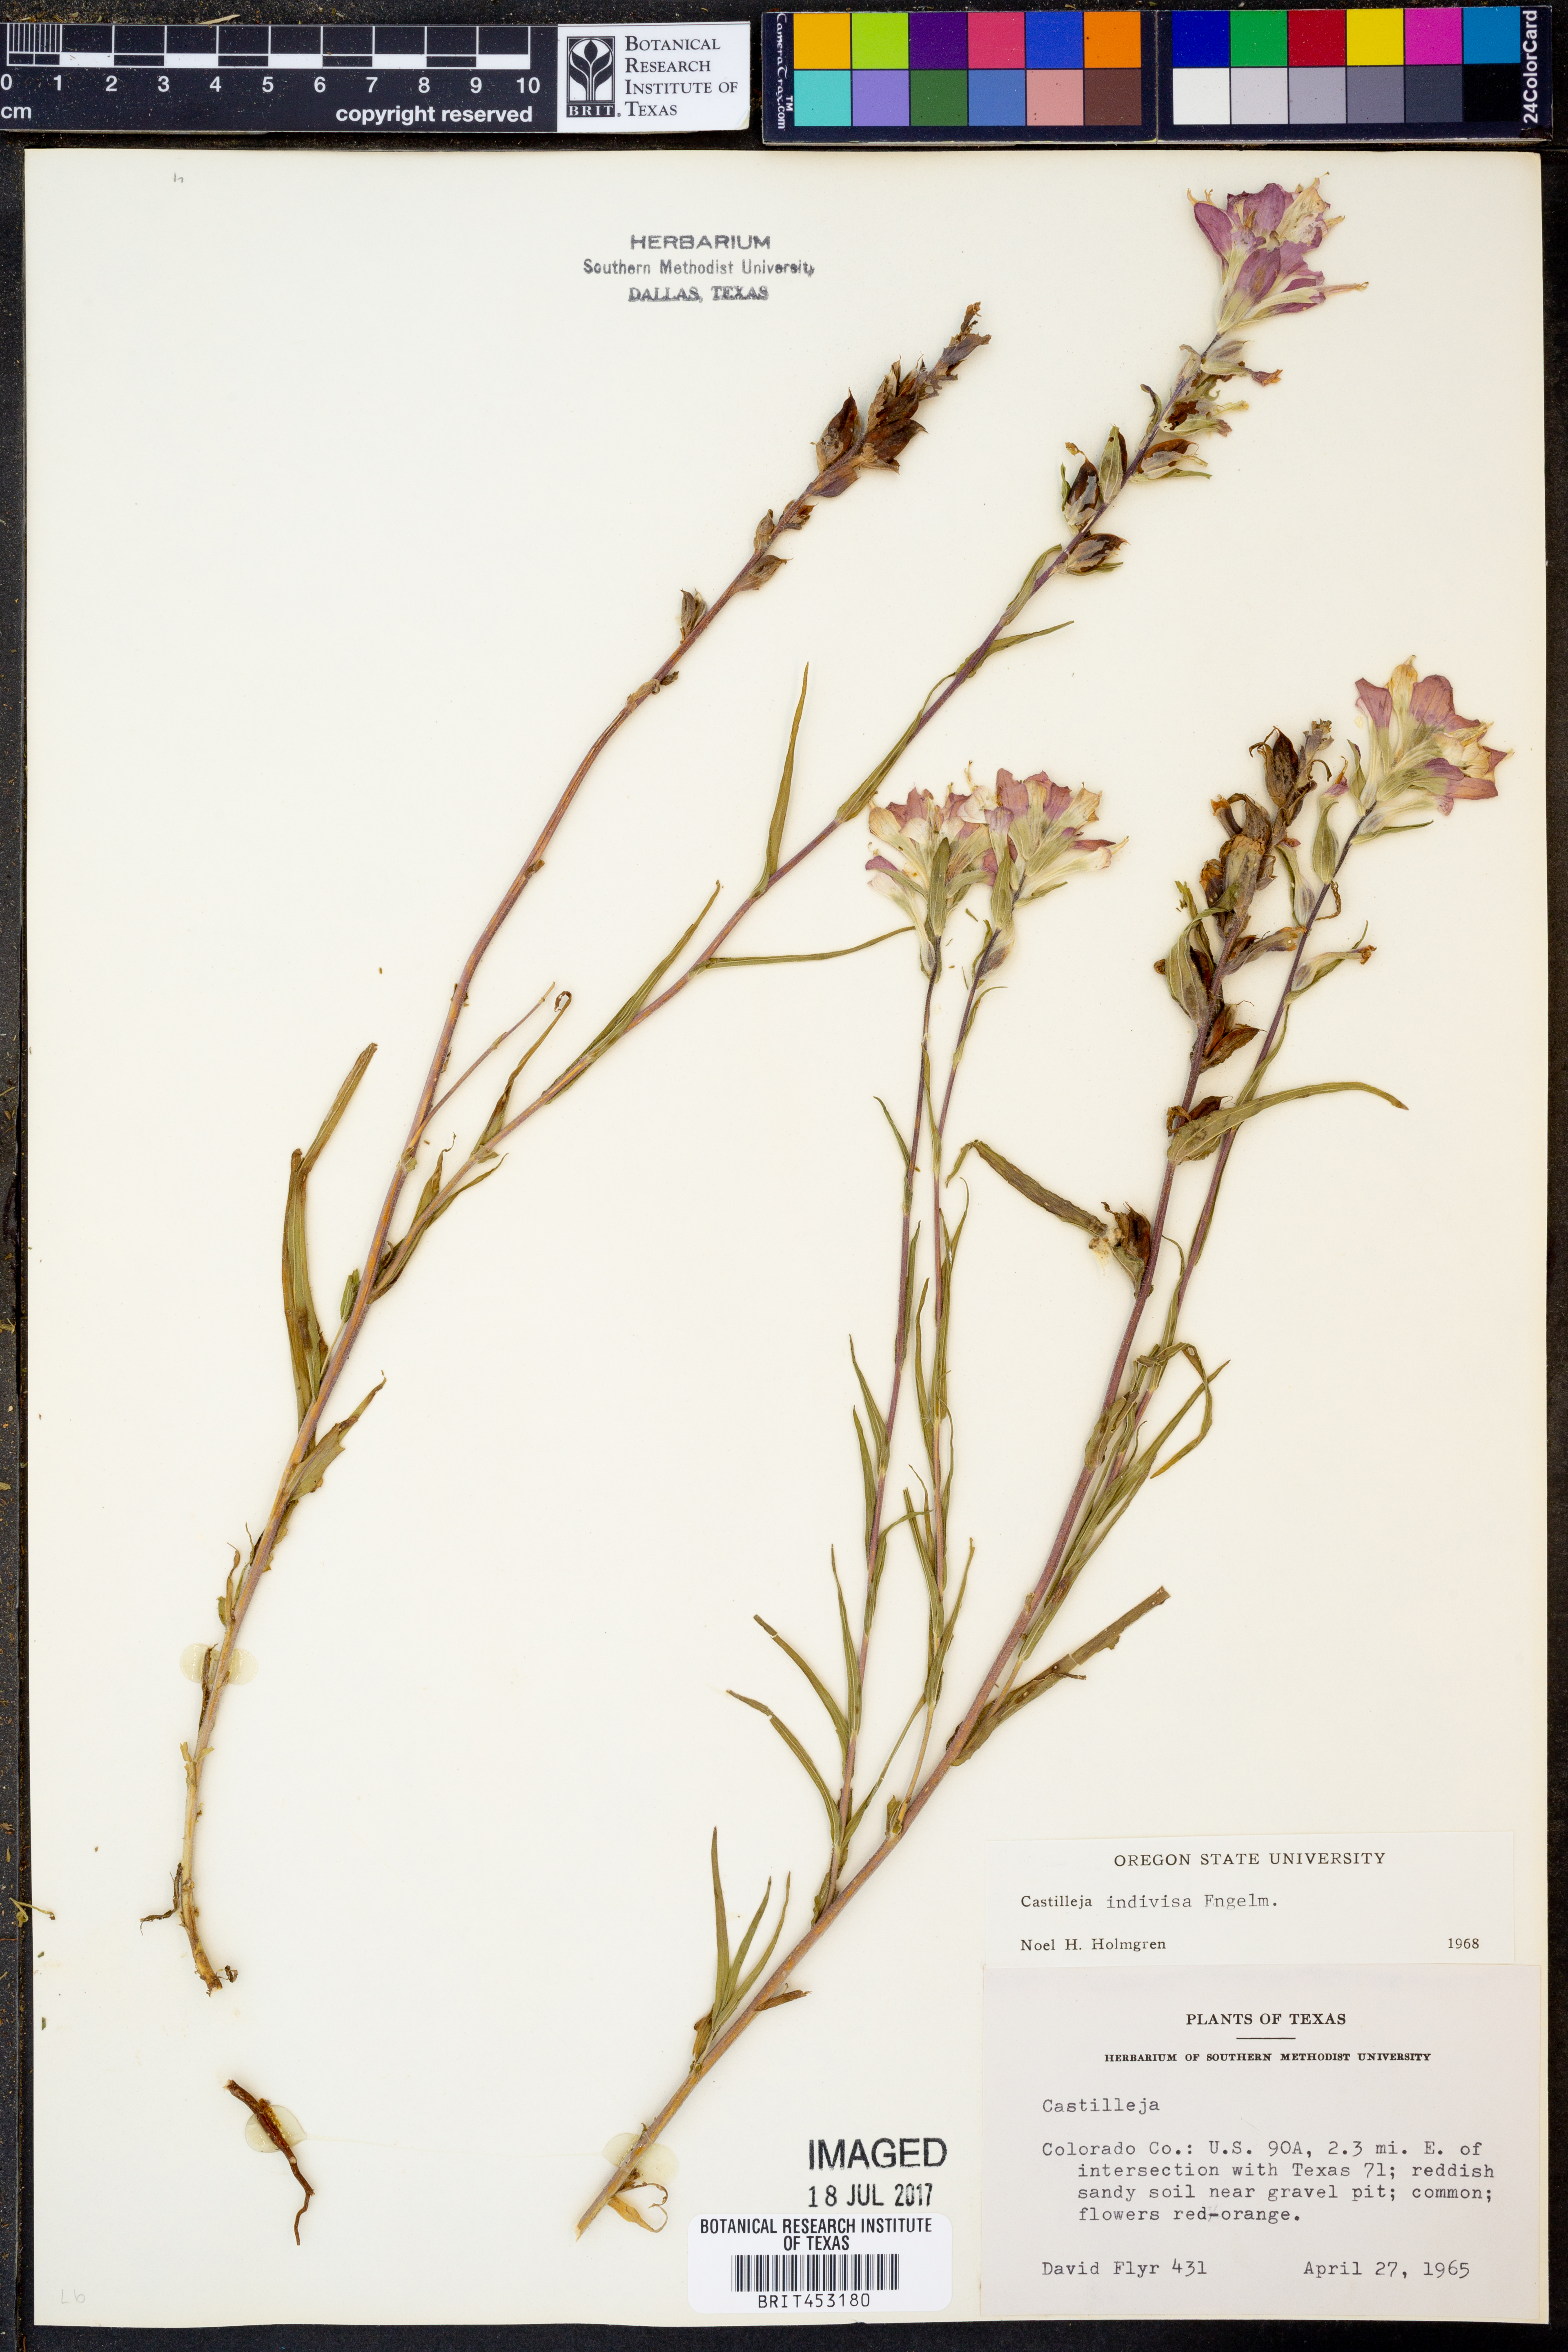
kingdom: Plantae
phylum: Tracheophyta
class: Magnoliopsida
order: Lamiales
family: Orobanchaceae
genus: Castilleja
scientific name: Castilleja indivisa
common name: Texas paintbrush
